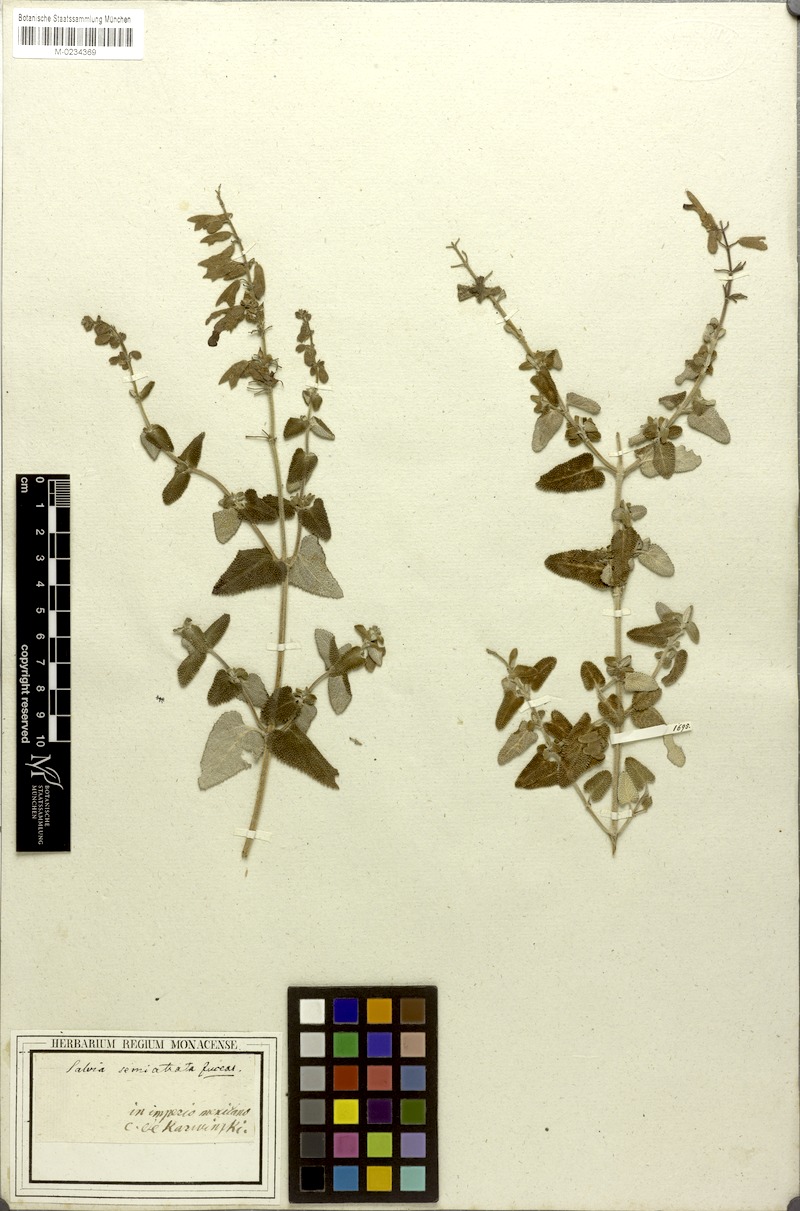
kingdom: Plantae
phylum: Tracheophyta
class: Magnoliopsida
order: Lamiales
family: Lamiaceae
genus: Salvia
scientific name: Salvia semiatrata
